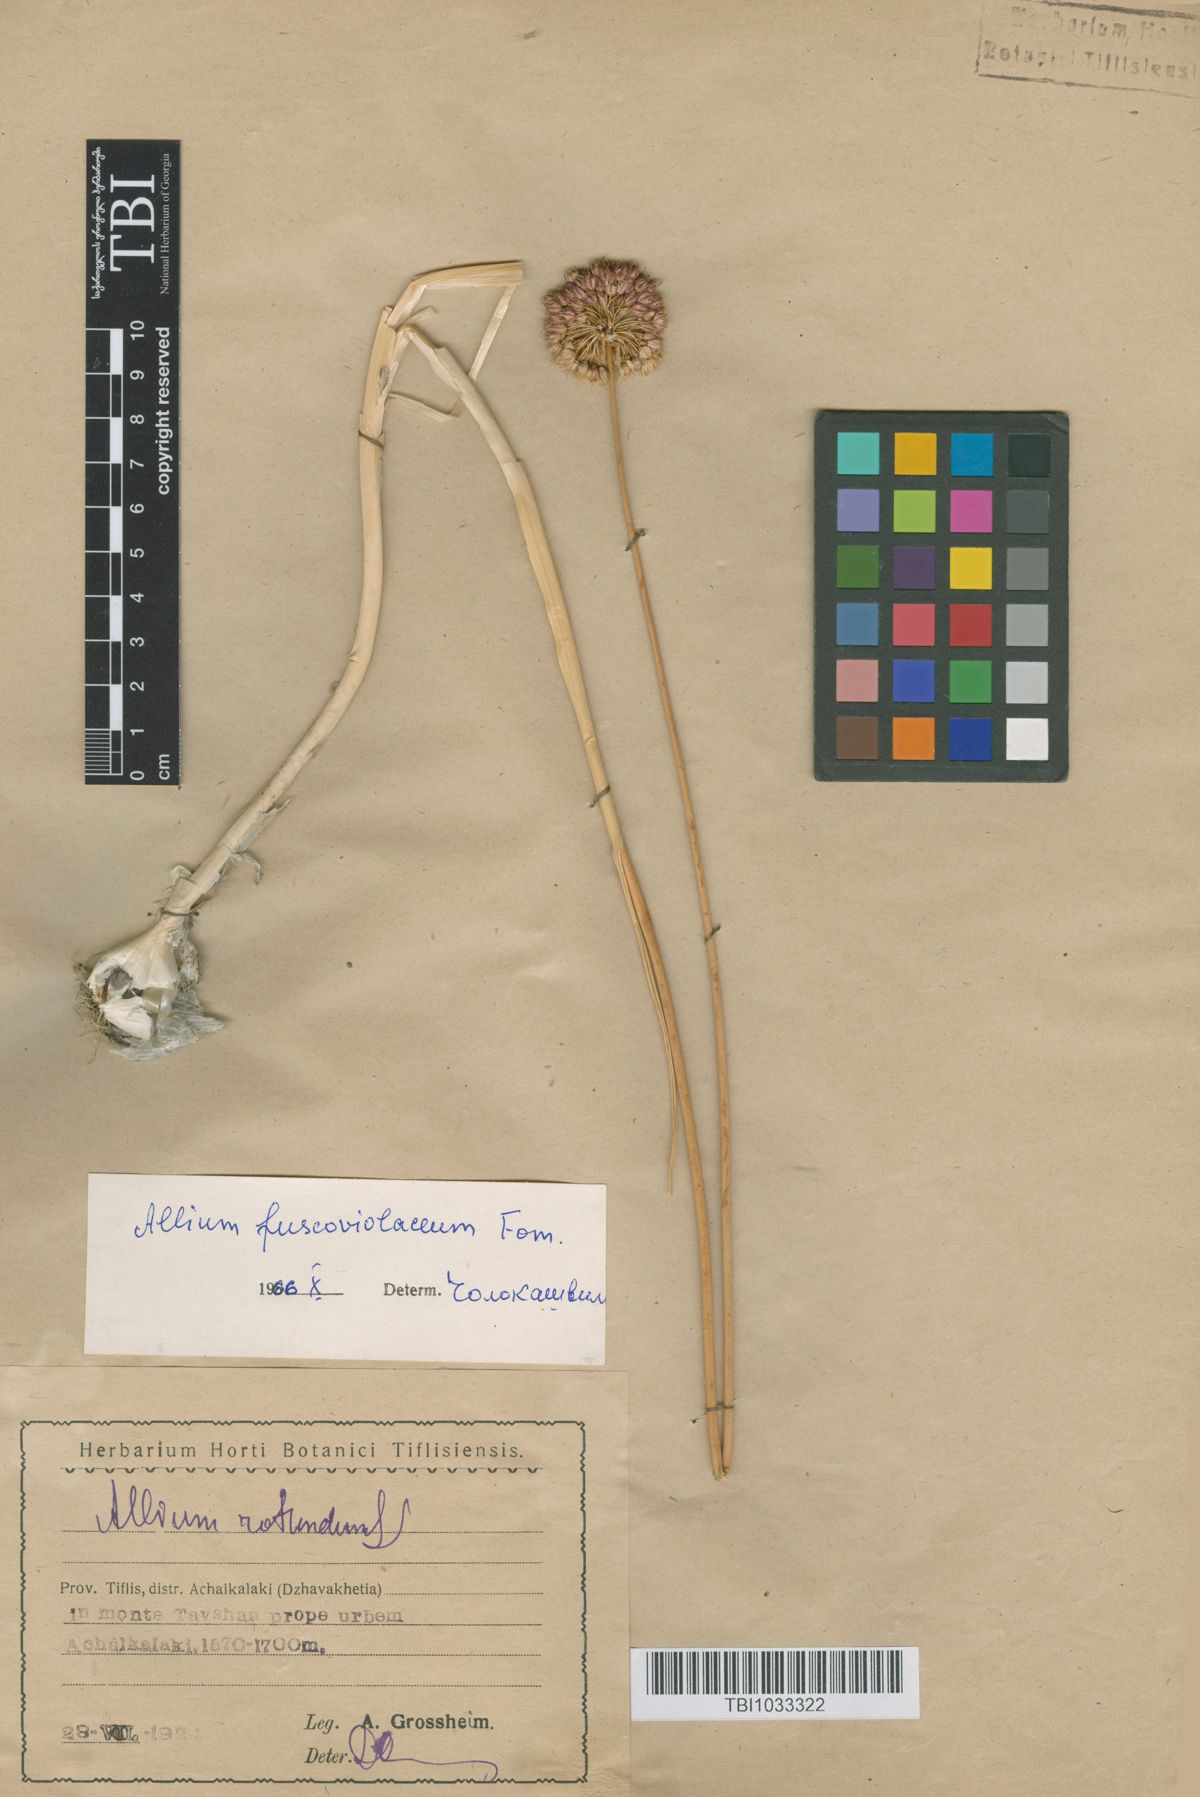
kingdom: Plantae
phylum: Tracheophyta
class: Liliopsida
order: Asparagales
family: Amaryllidaceae
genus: Allium
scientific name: Allium fuscoviolaceum
